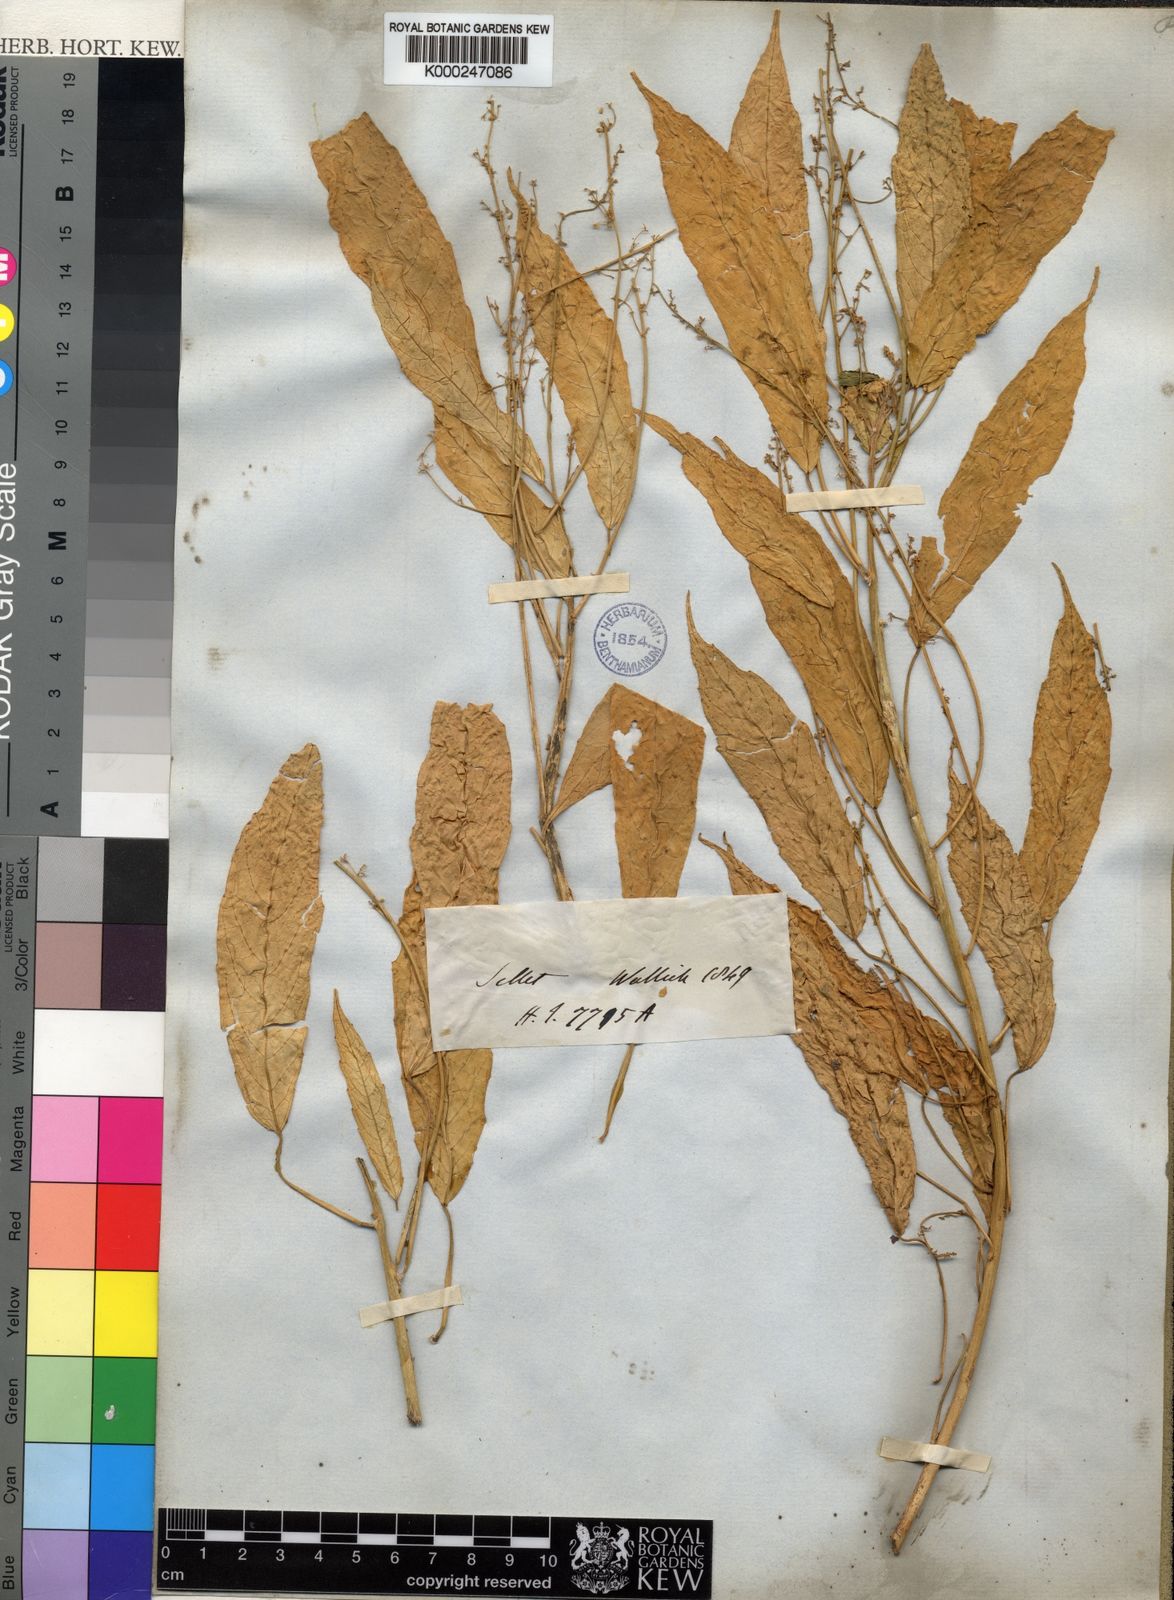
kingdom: Plantae
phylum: Tracheophyta
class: Magnoliopsida
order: Malpighiales
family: Euphorbiaceae
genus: Baliospermum
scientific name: Baliospermum
